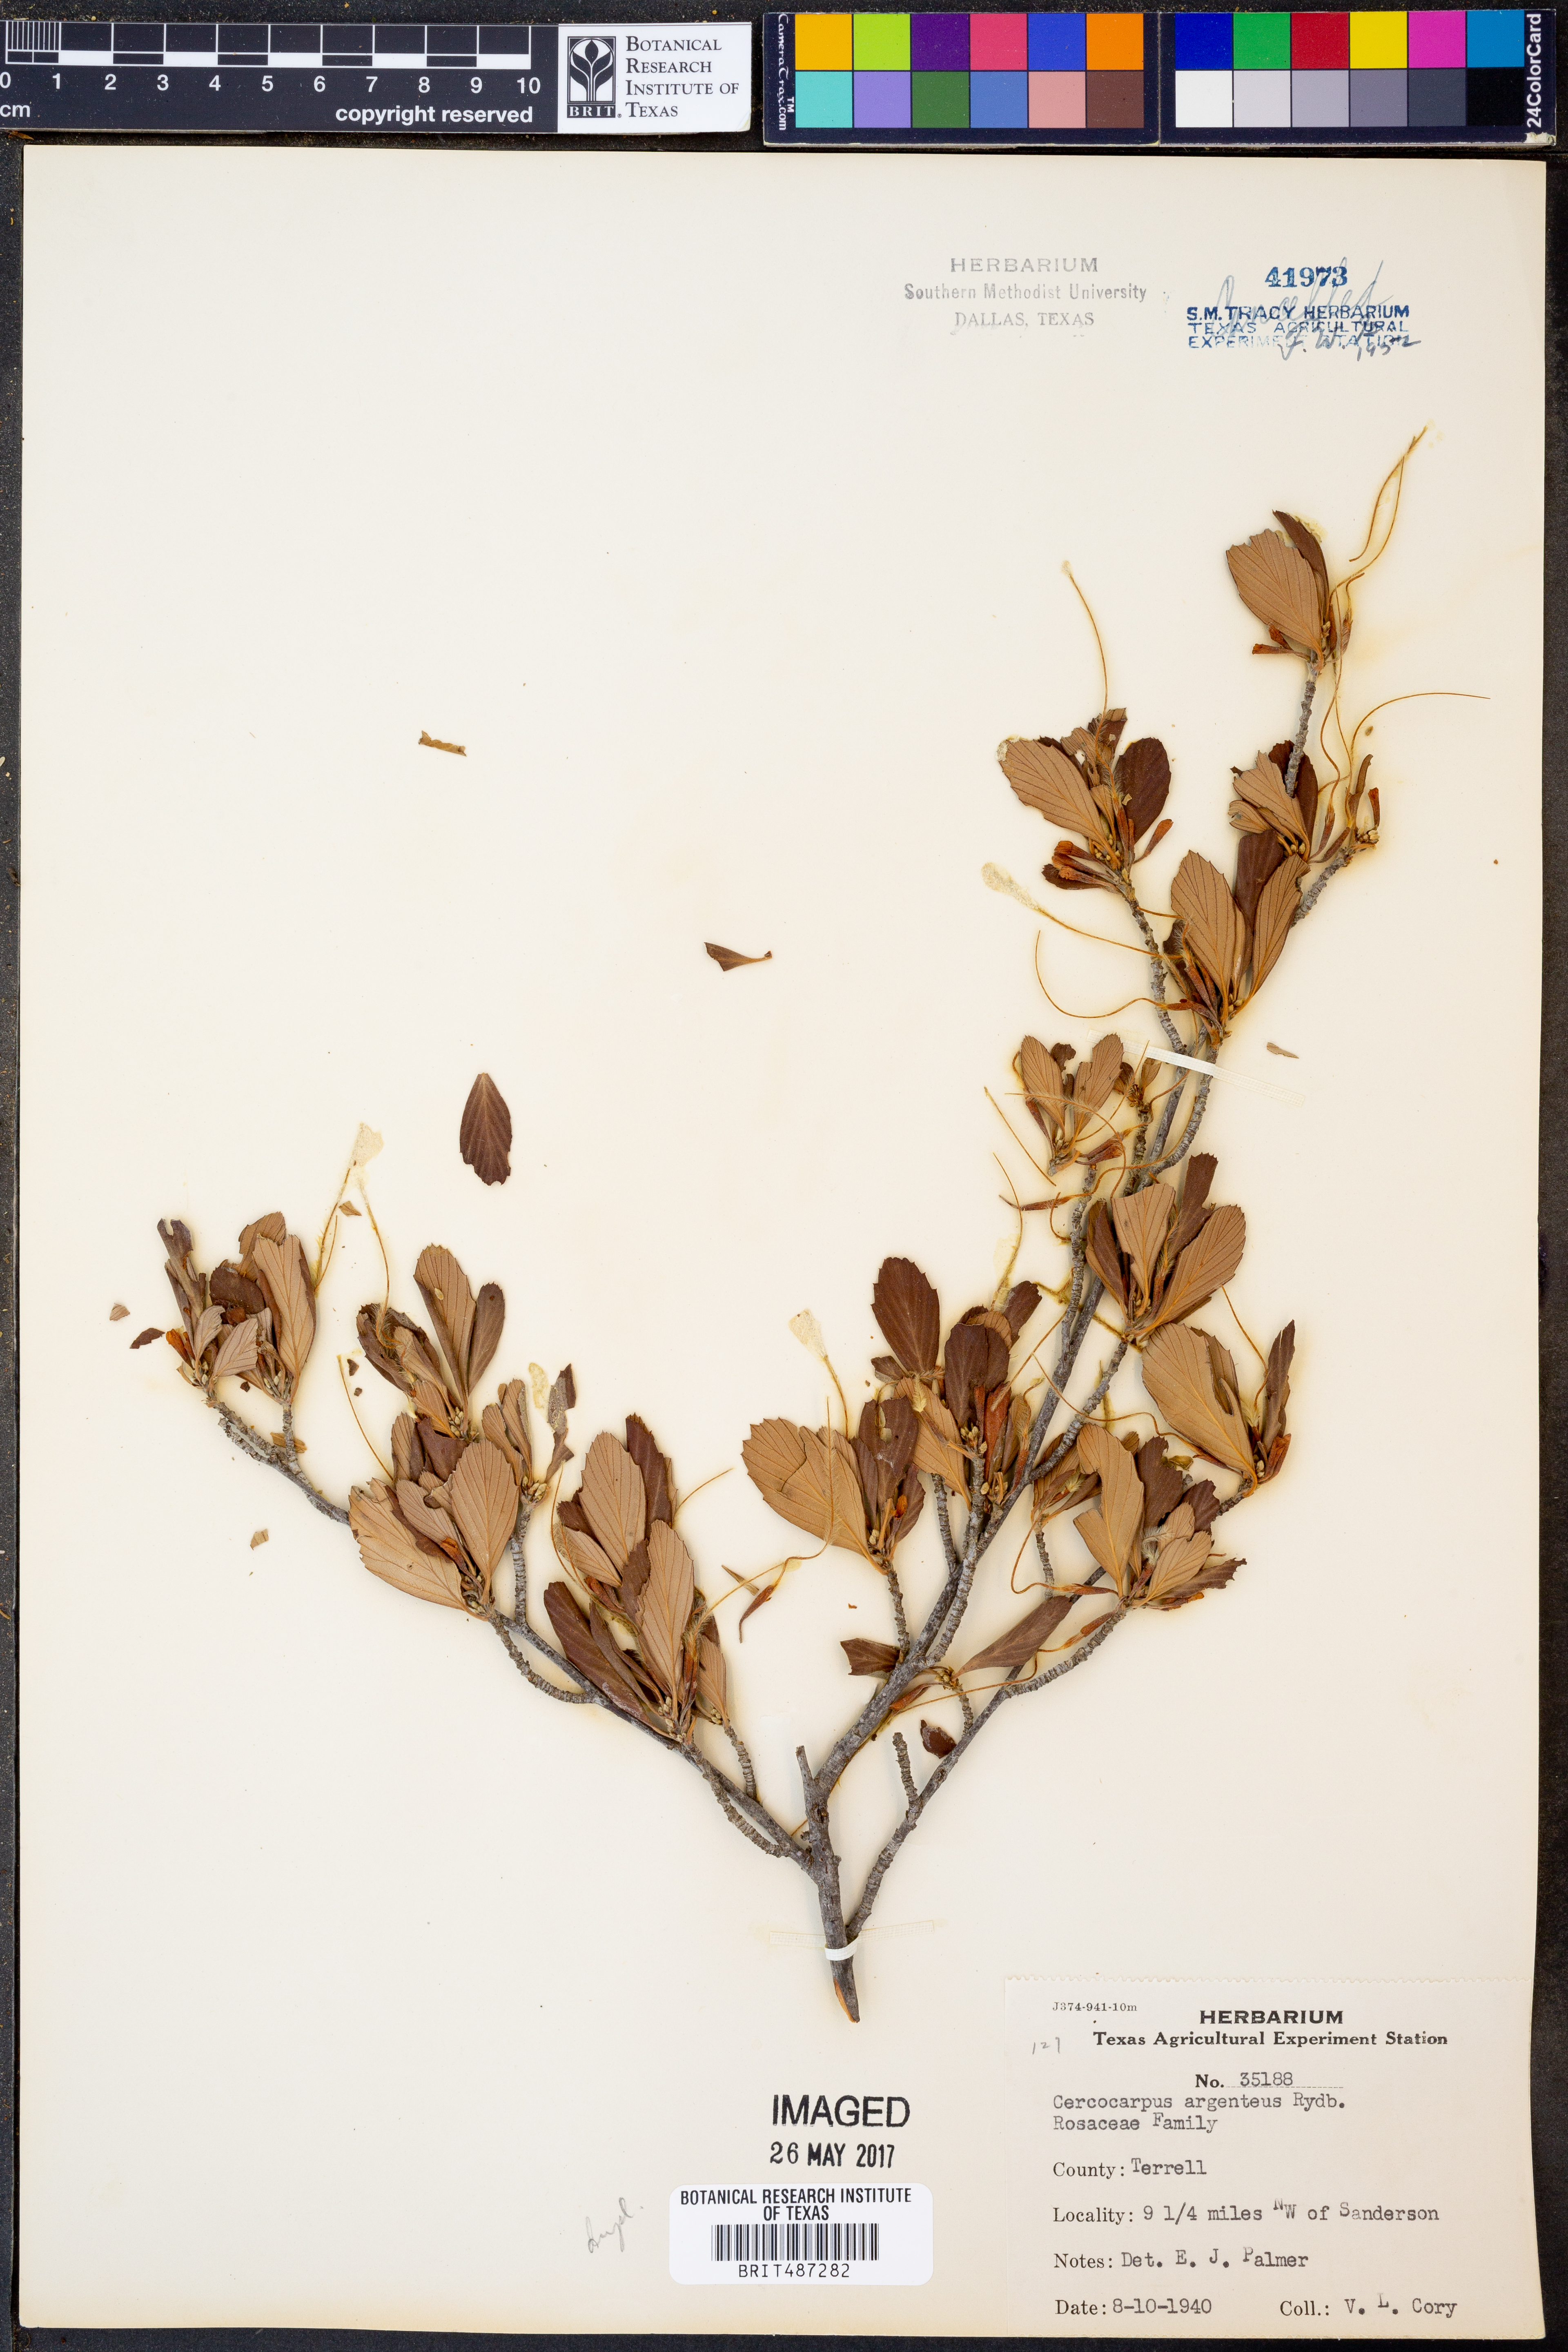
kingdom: Plantae
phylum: Tracheophyta
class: Magnoliopsida
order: Rosales
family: Rosaceae
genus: Cercocarpus
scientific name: Cercocarpus intricatus
